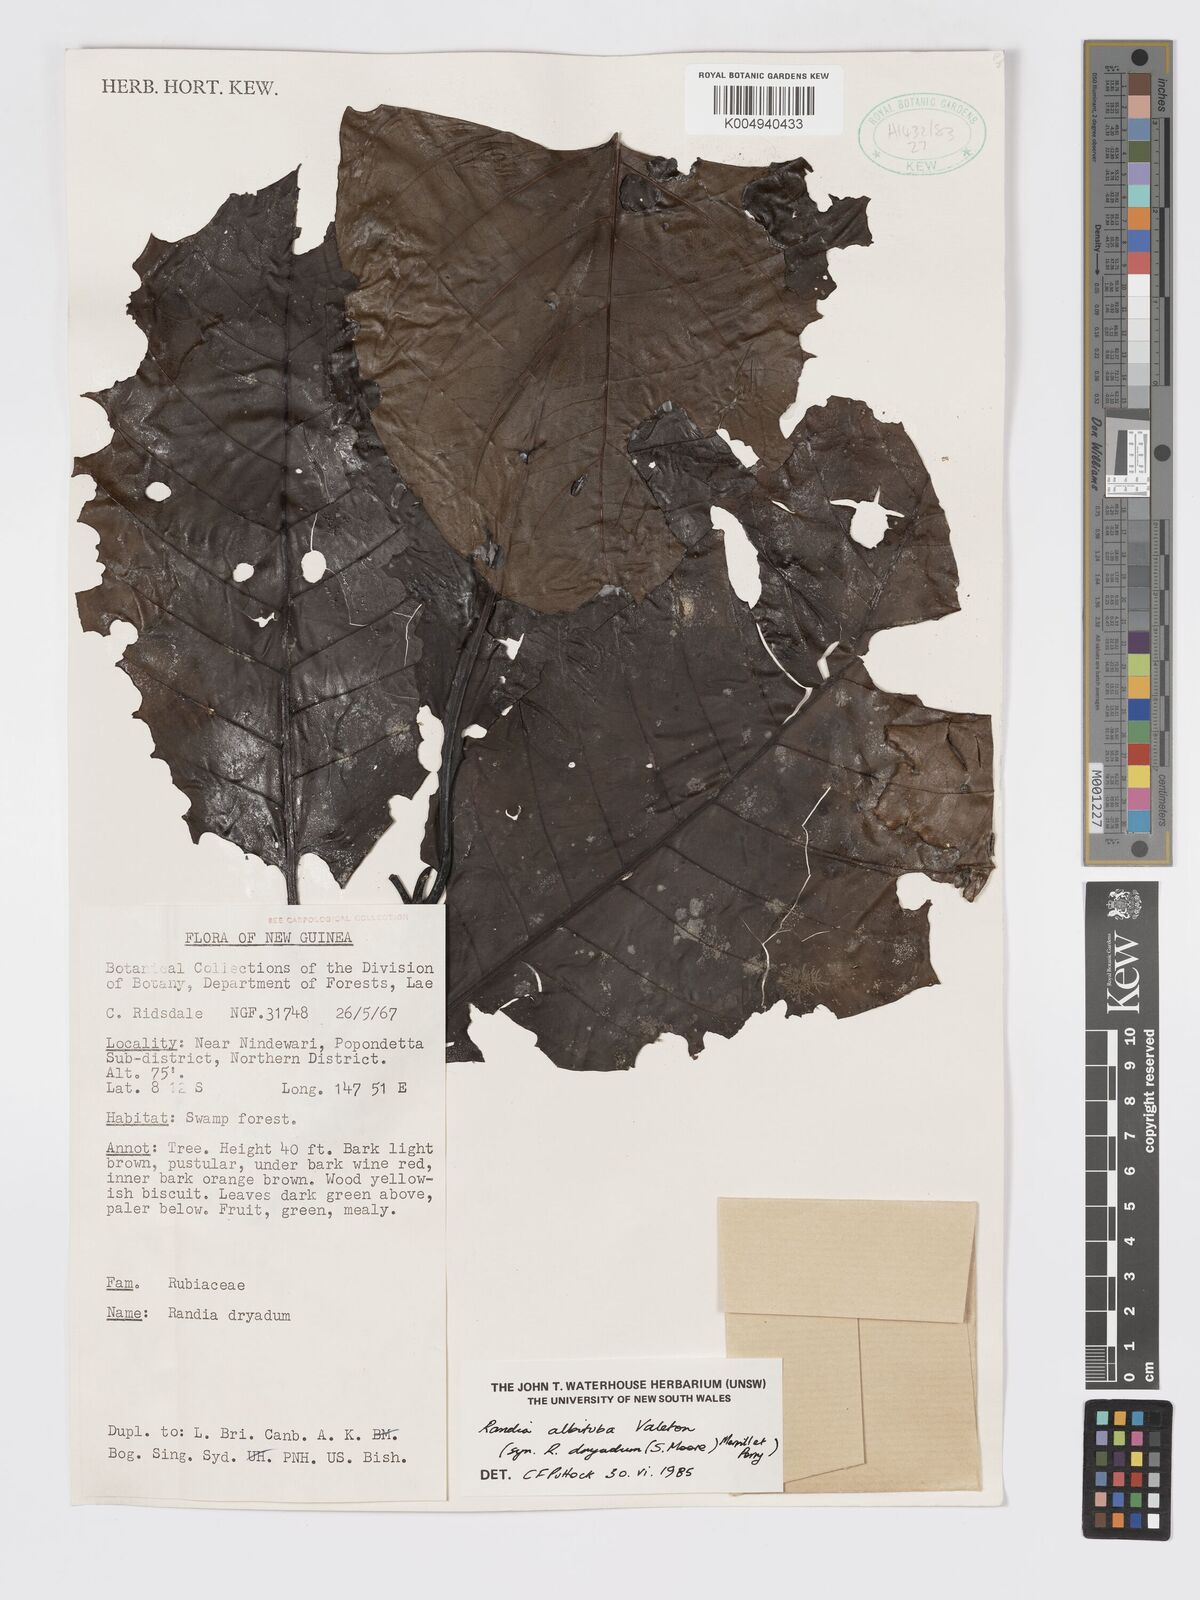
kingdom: Plantae
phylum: Tracheophyta
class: Magnoliopsida
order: Gentianales
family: Rubiaceae
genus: Atractocarpus
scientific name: Atractocarpus macarthurii
